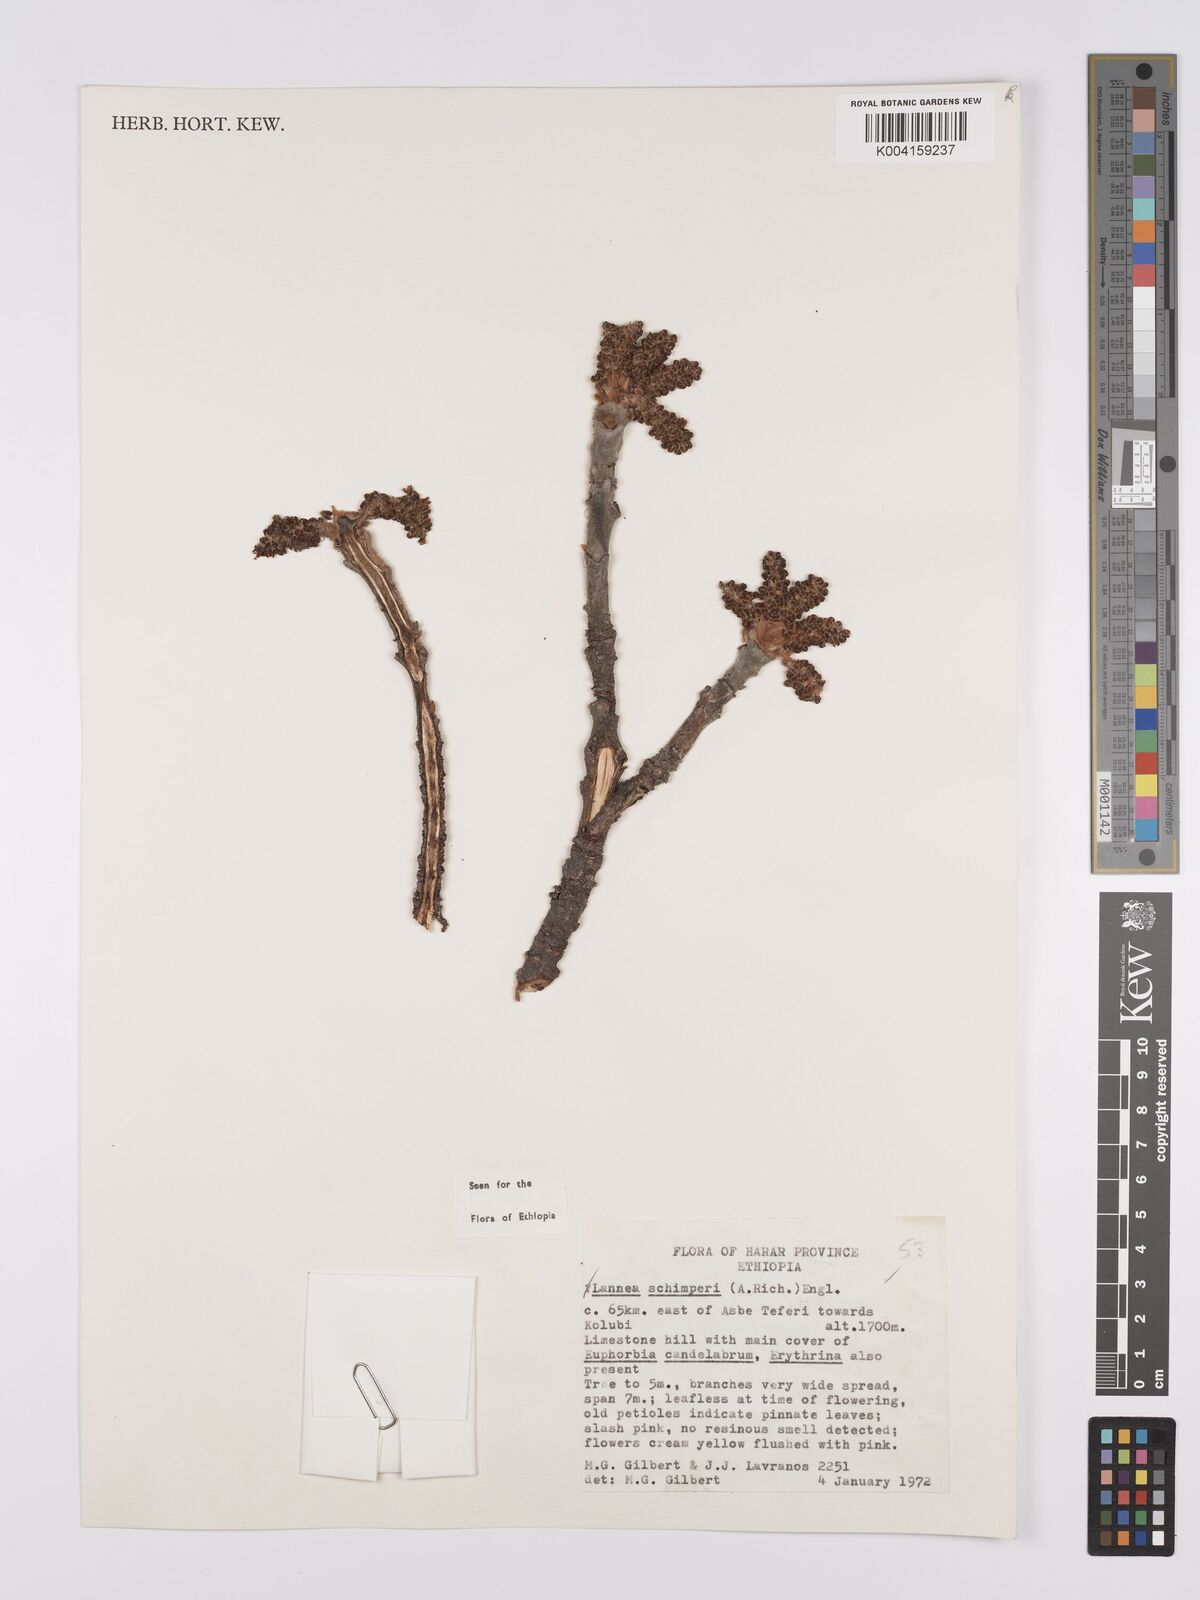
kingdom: Plantae
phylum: Tracheophyta
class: Magnoliopsida
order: Sapindales
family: Anacardiaceae
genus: Lannea
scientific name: Lannea schimperi
